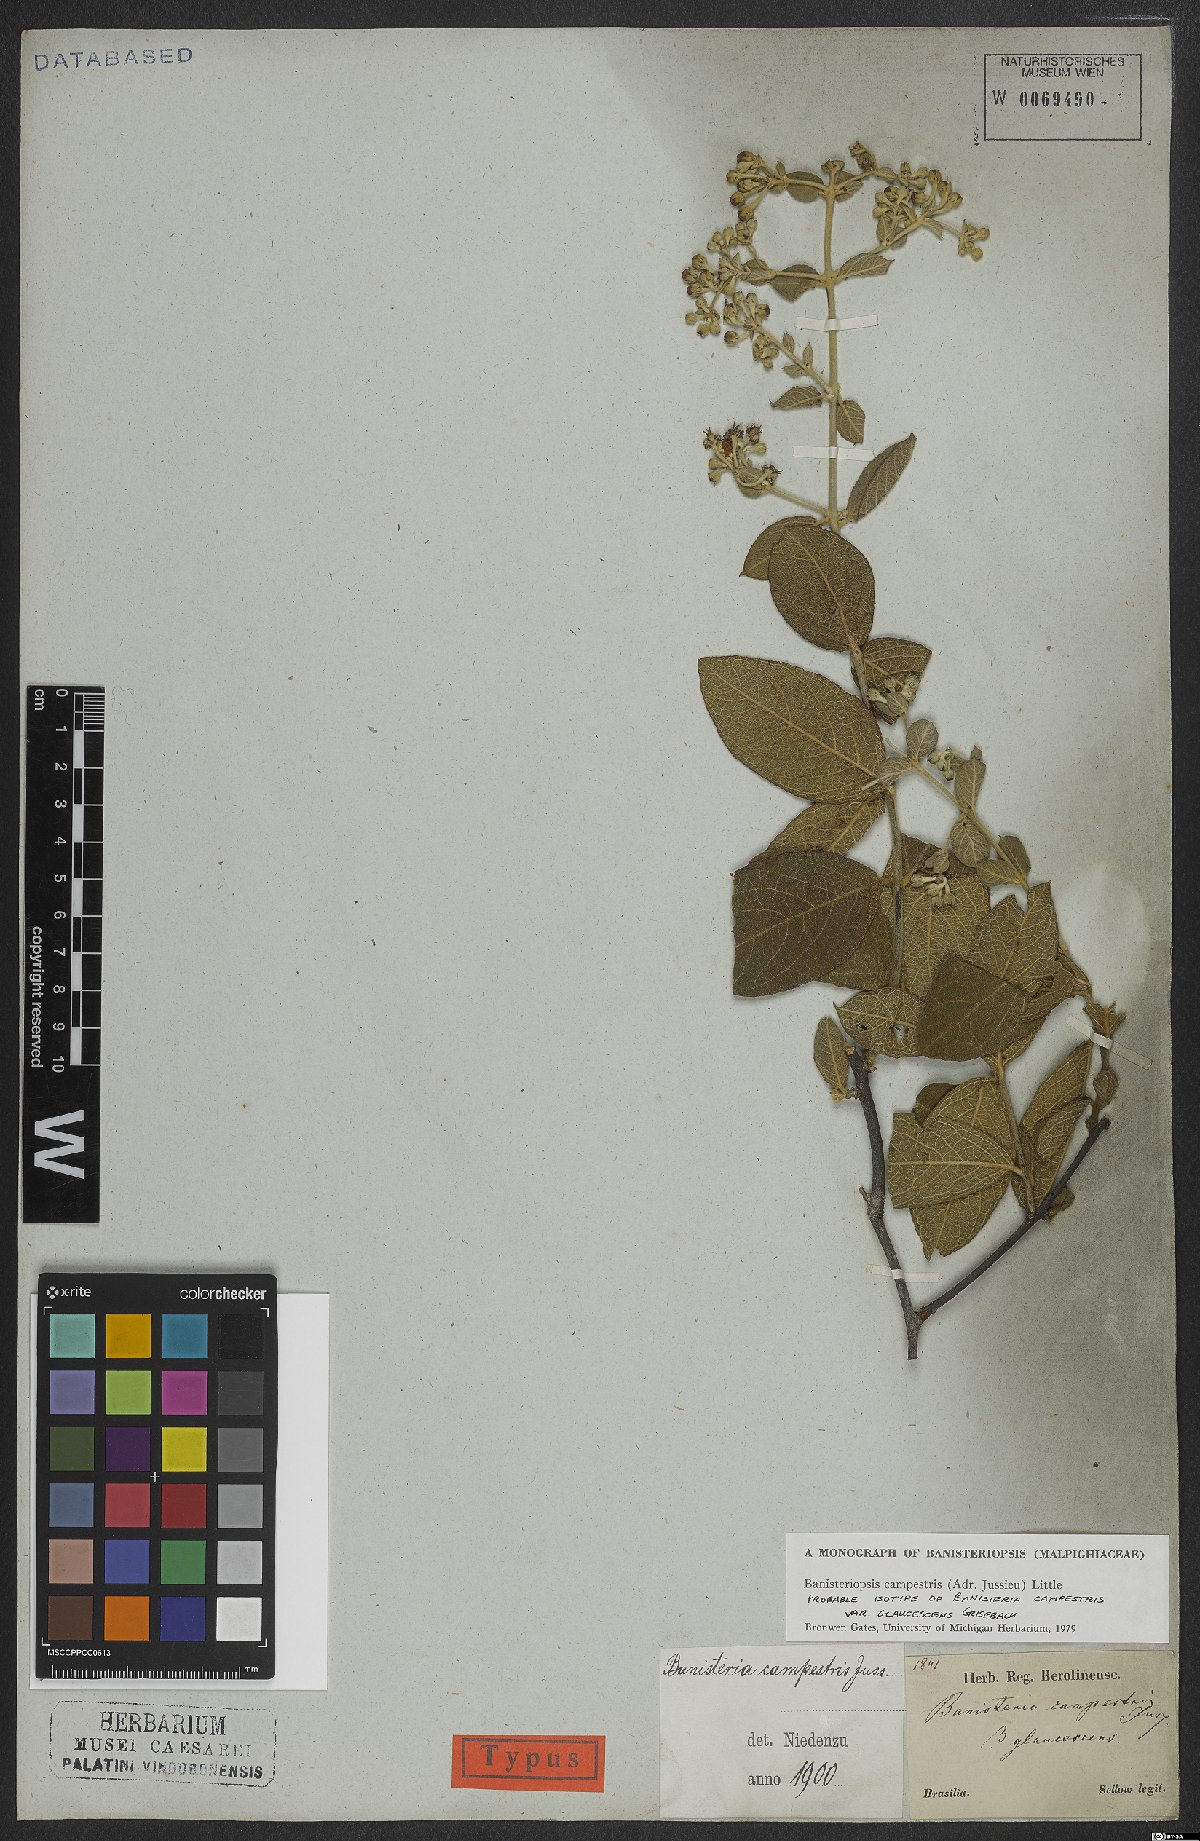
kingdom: Plantae
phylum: Tracheophyta
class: Magnoliopsida
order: Malpighiales
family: Malpighiaceae
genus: Banisteriopsis
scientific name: Banisteriopsis campestris
